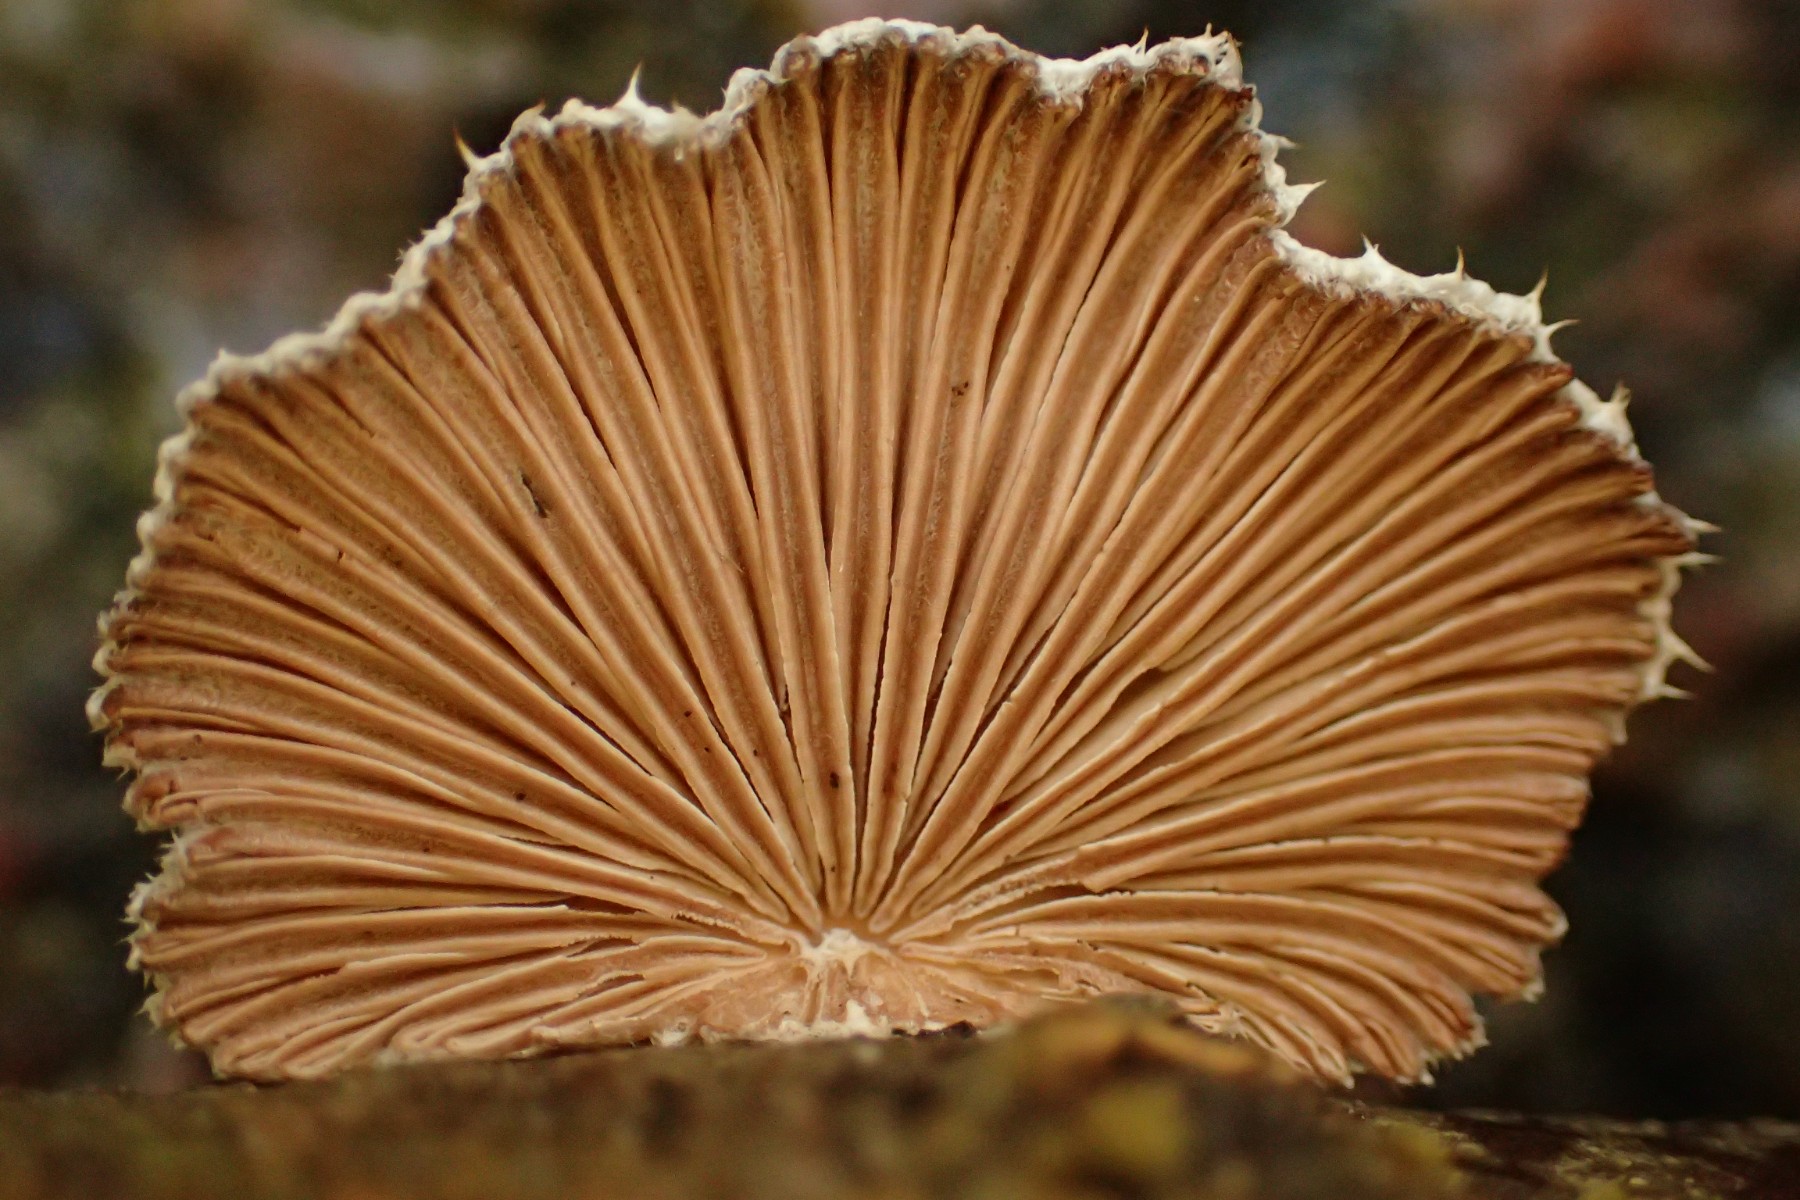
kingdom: Fungi
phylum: Basidiomycota
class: Agaricomycetes
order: Agaricales
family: Schizophyllaceae
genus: Schizophyllum
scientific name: Schizophyllum commune
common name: kløvblad
